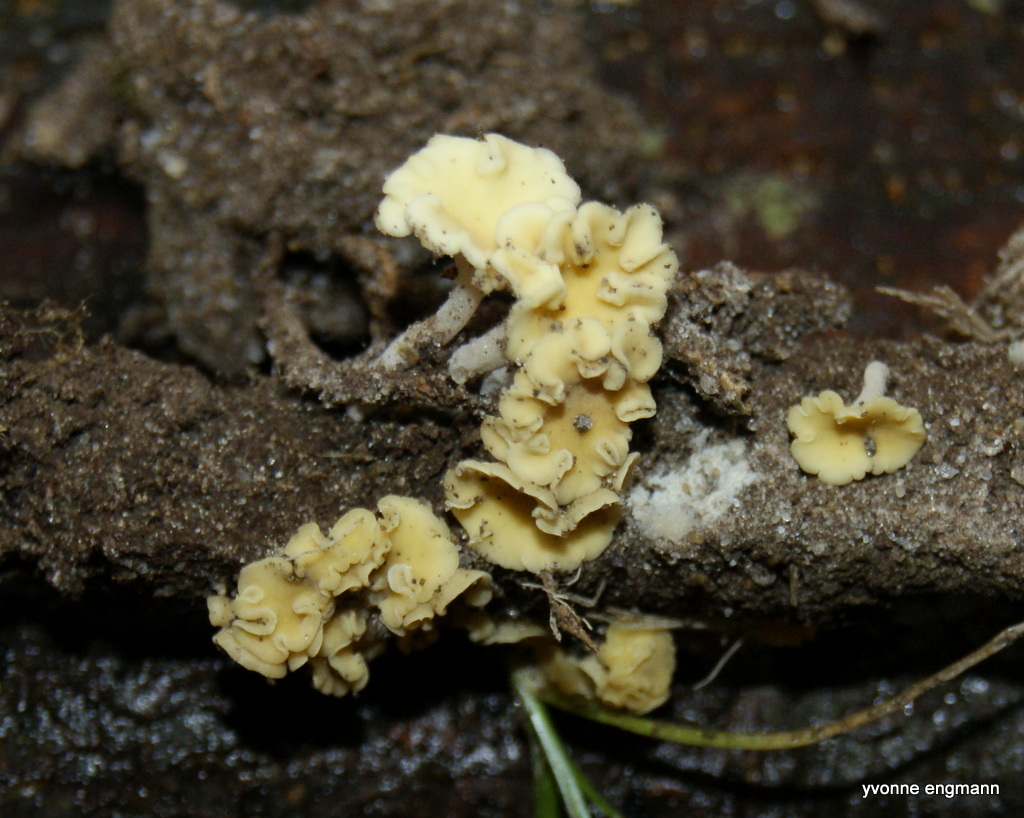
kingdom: Fungi
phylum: Ascomycota
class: Leotiomycetes
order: Helotiales
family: Helotiaceae
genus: Hymenoscyphus
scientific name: Hymenoscyphus serotinus
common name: krumsporet stilkskive
